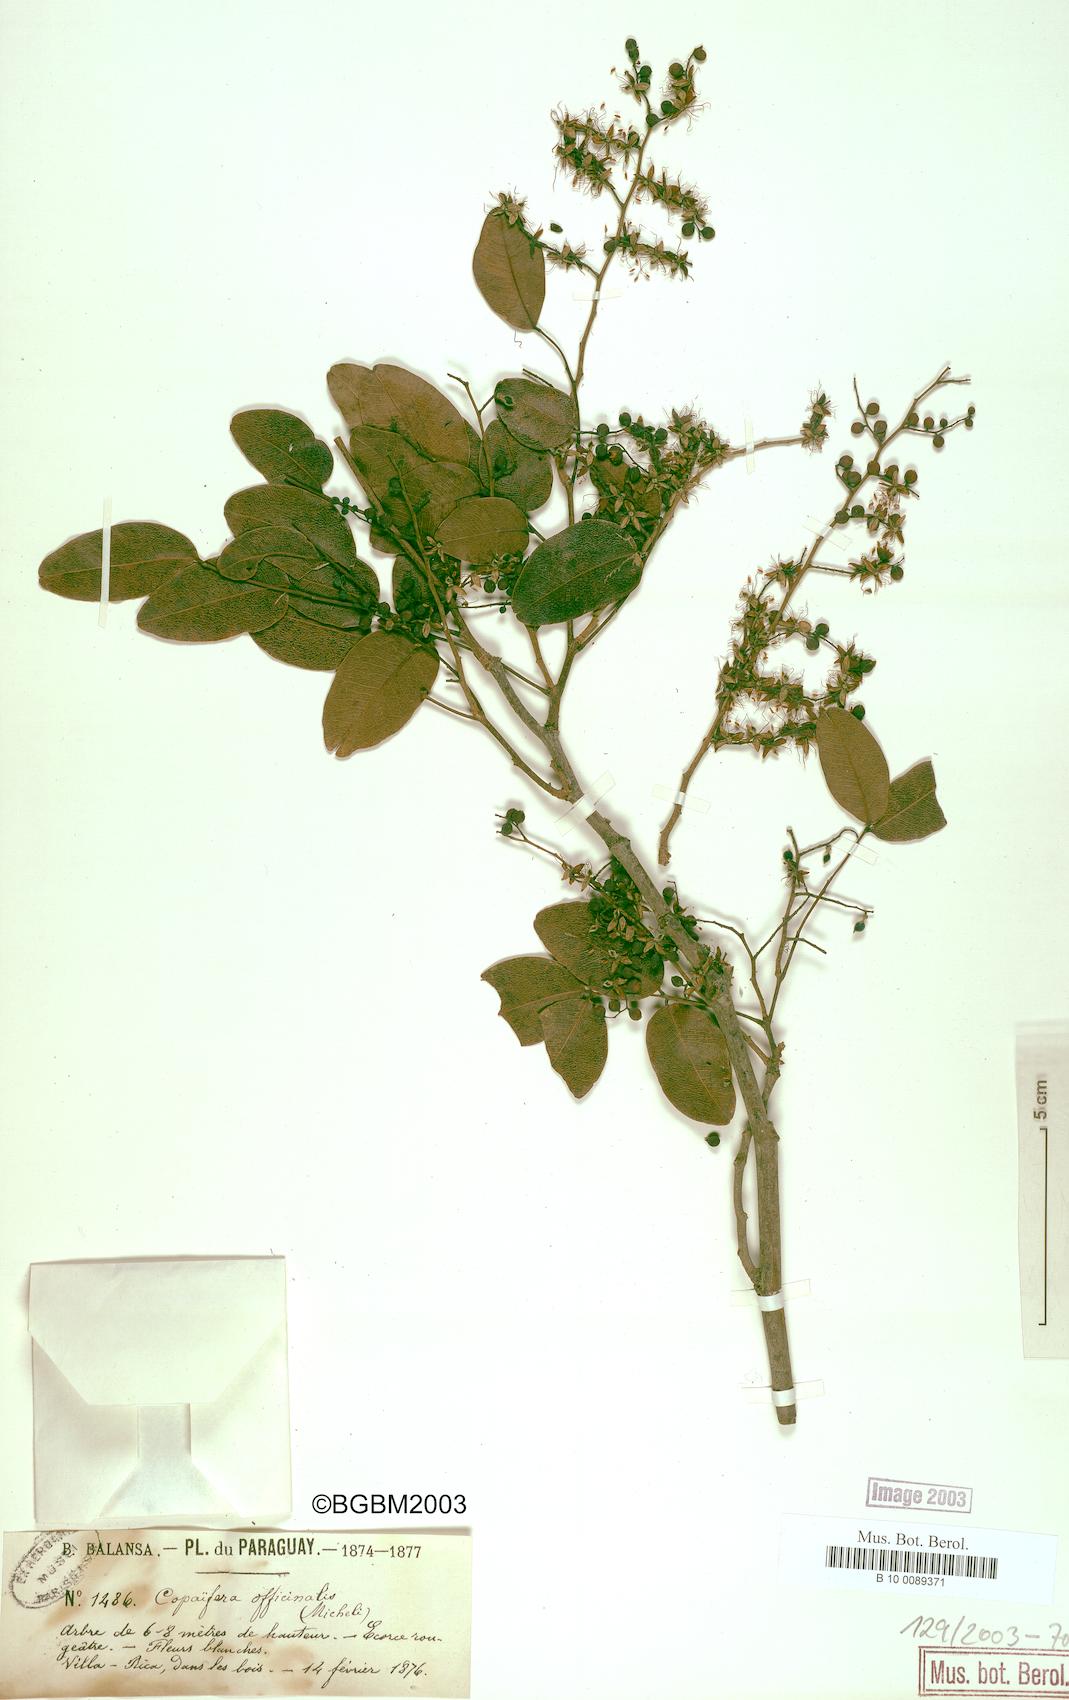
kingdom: Plantae
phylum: Tracheophyta
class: Magnoliopsida
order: Fabales
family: Fabaceae
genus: Copaifera
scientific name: Copaifera officinalis
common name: Copaiba
